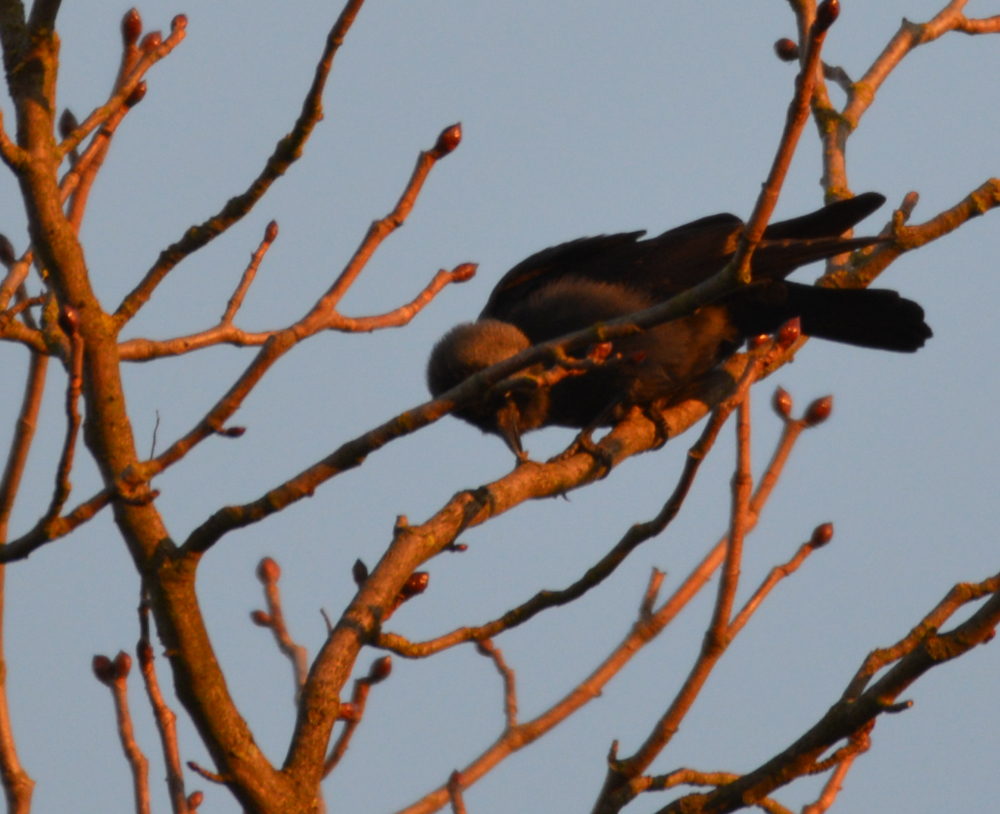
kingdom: Animalia
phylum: Chordata
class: Aves
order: Passeriformes
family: Corvidae
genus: Coloeus
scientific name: Coloeus monedula
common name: Western jackdaw
